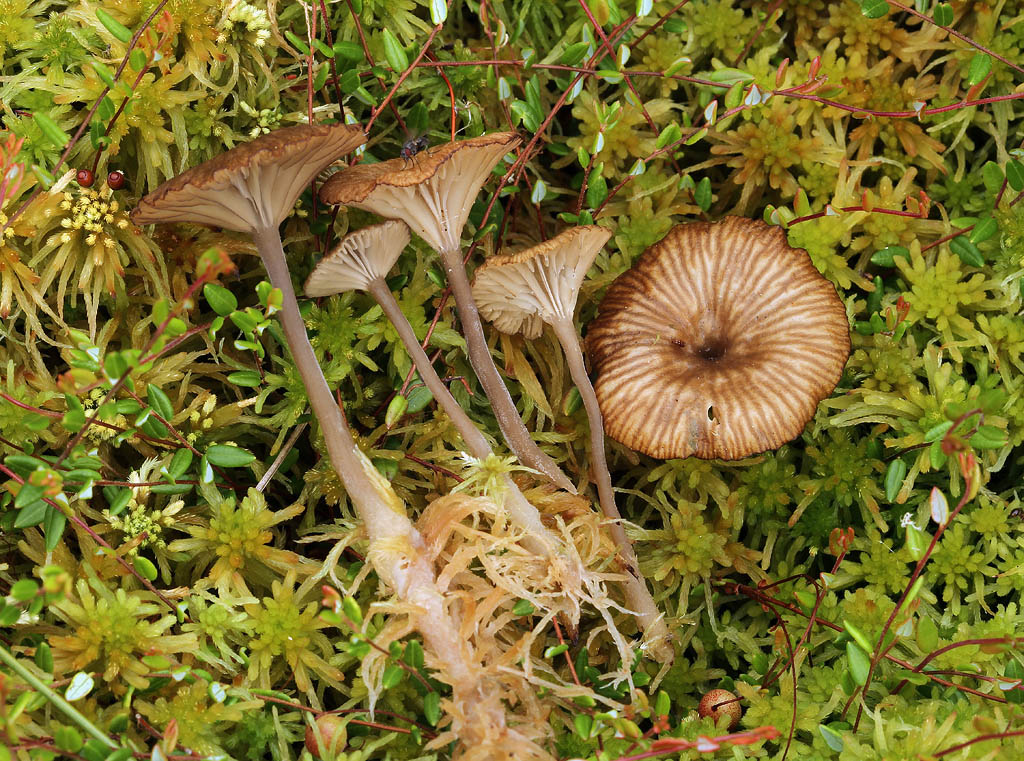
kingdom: Fungi
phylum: Basidiomycota
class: Agaricomycetes
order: Agaricales
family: Hygrophoraceae
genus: Arrhenia
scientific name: Arrhenia gerardiana
